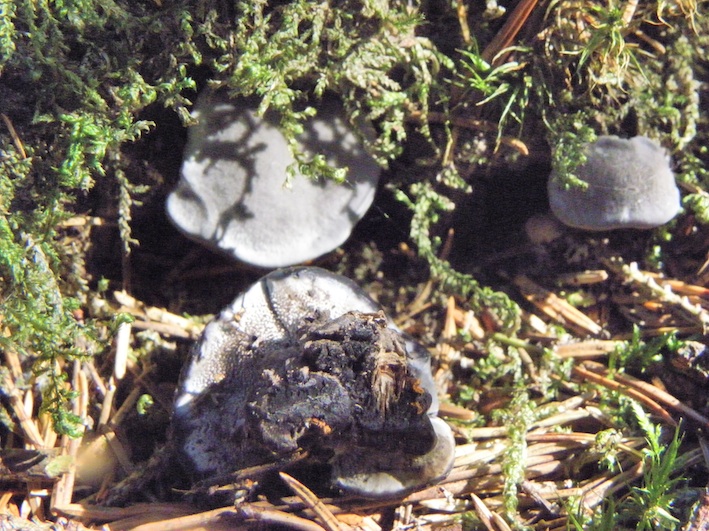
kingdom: Fungi
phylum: Basidiomycota
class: Agaricomycetes
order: Thelephorales
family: Thelephoraceae
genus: Phellodon
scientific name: Phellodon
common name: mørk duftpigsvamp
